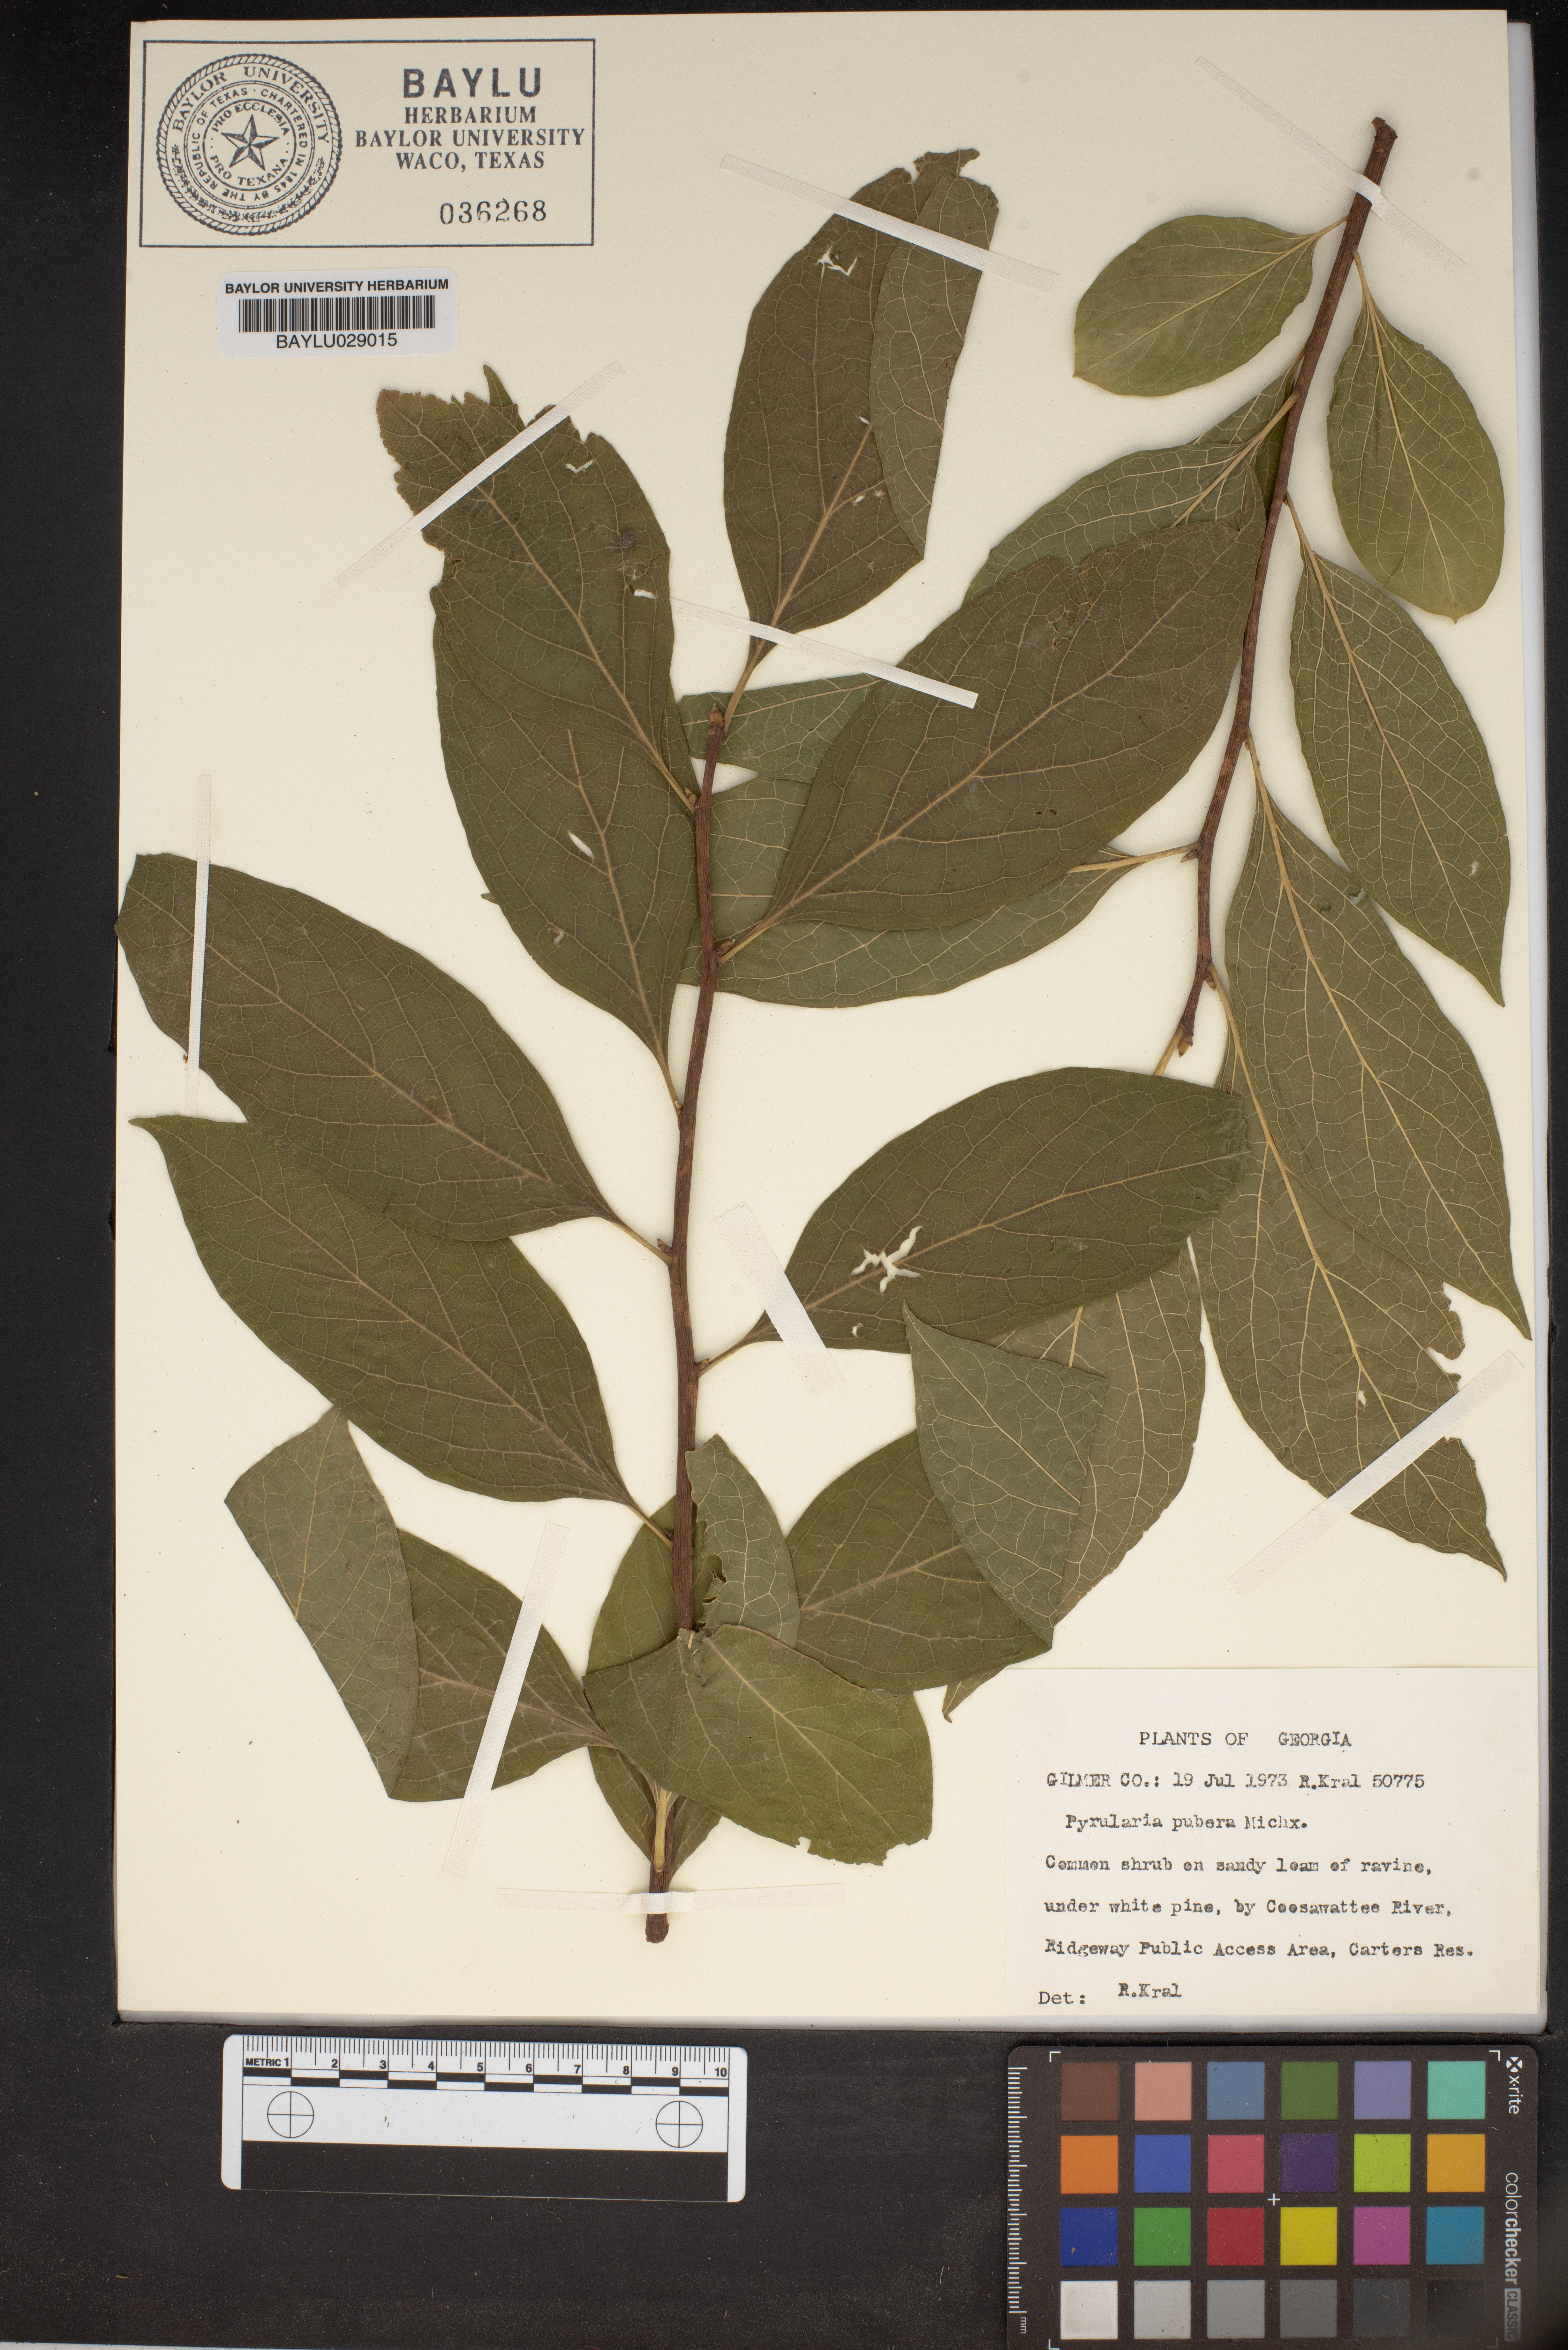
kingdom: Plantae
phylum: Tracheophyta
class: Magnoliopsida
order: Santalales
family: Cervantesiaceae
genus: Pyrularia
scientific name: Pyrularia pubera
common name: Oilnut
